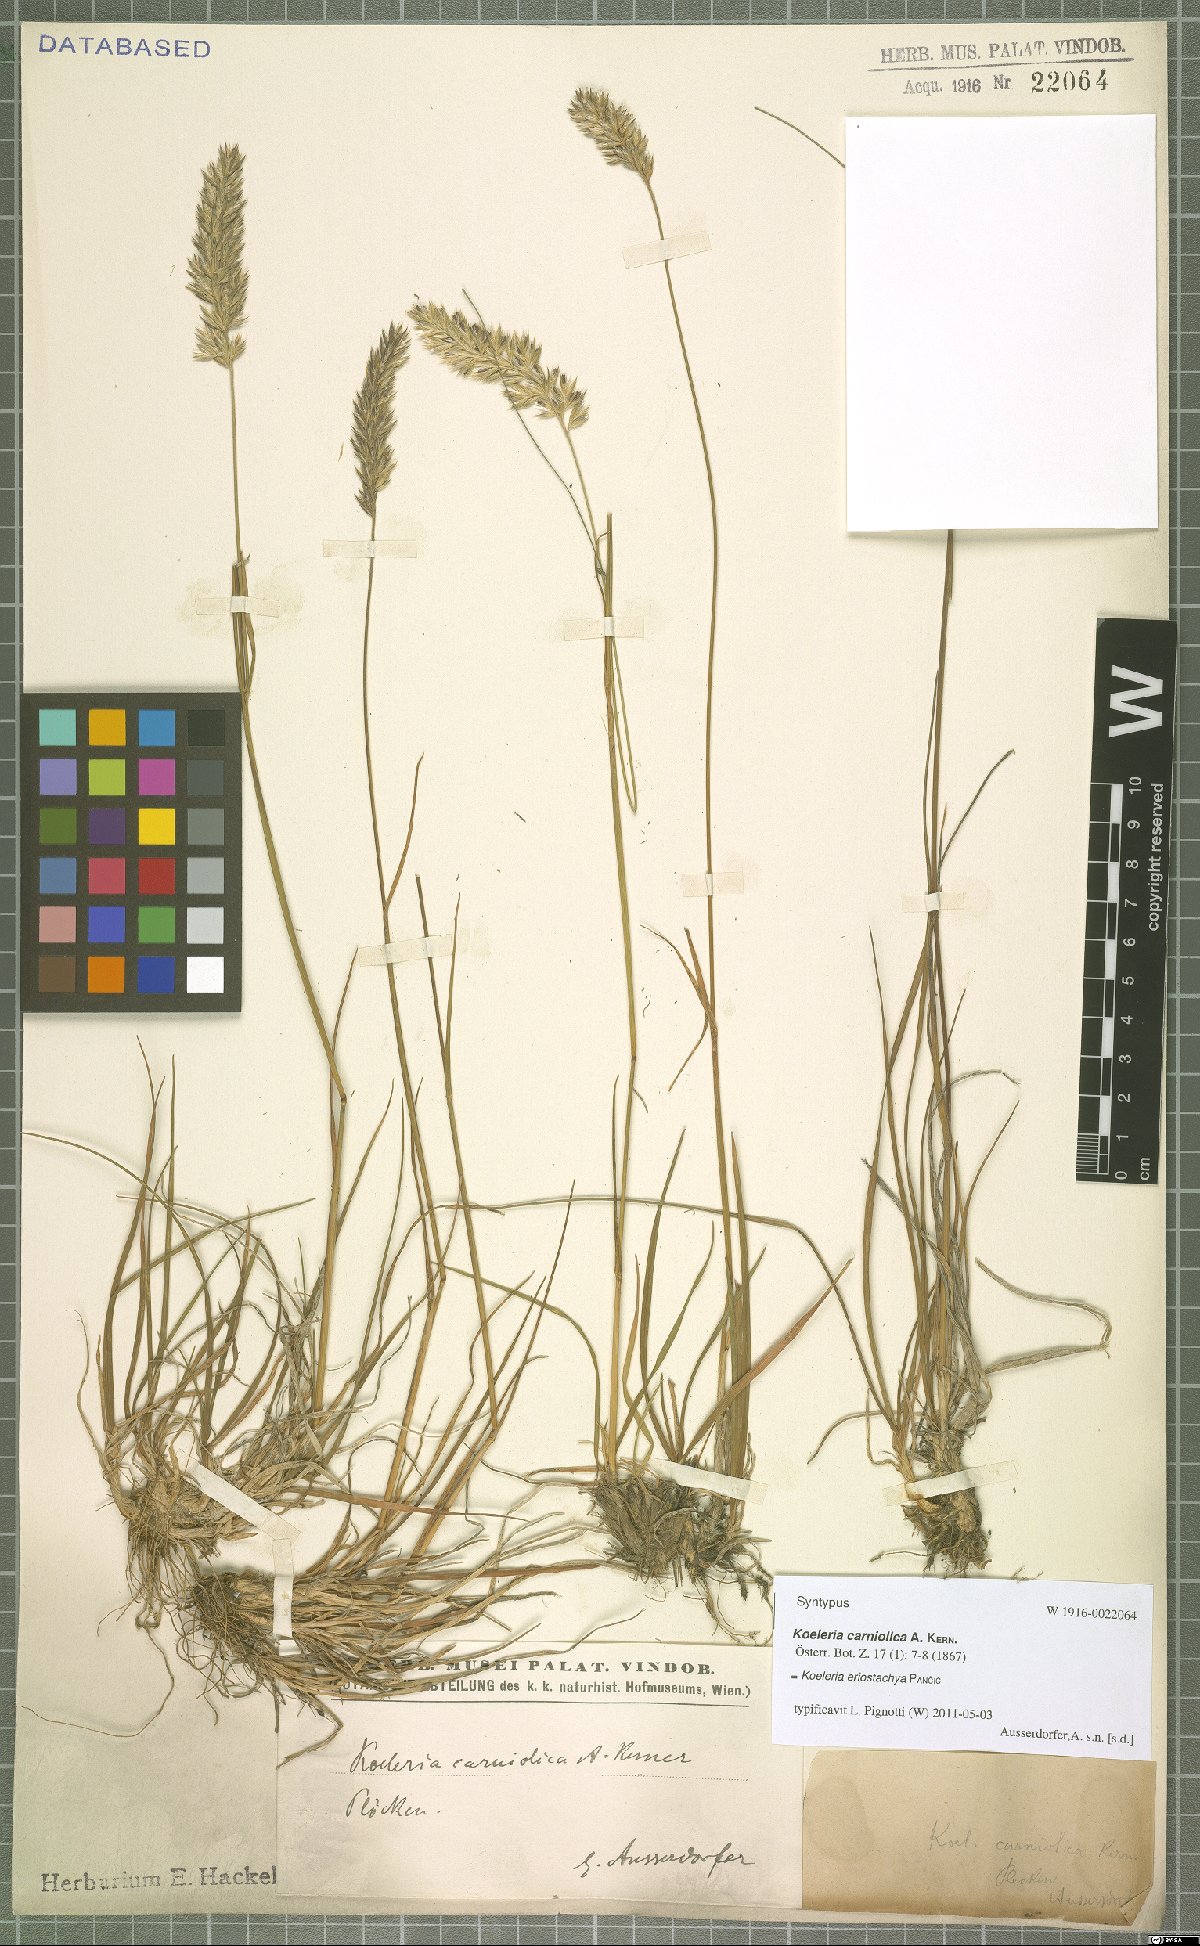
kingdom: Plantae
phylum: Tracheophyta
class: Liliopsida
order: Poales
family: Poaceae
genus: Koeleria
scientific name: Koeleria eriostachya
